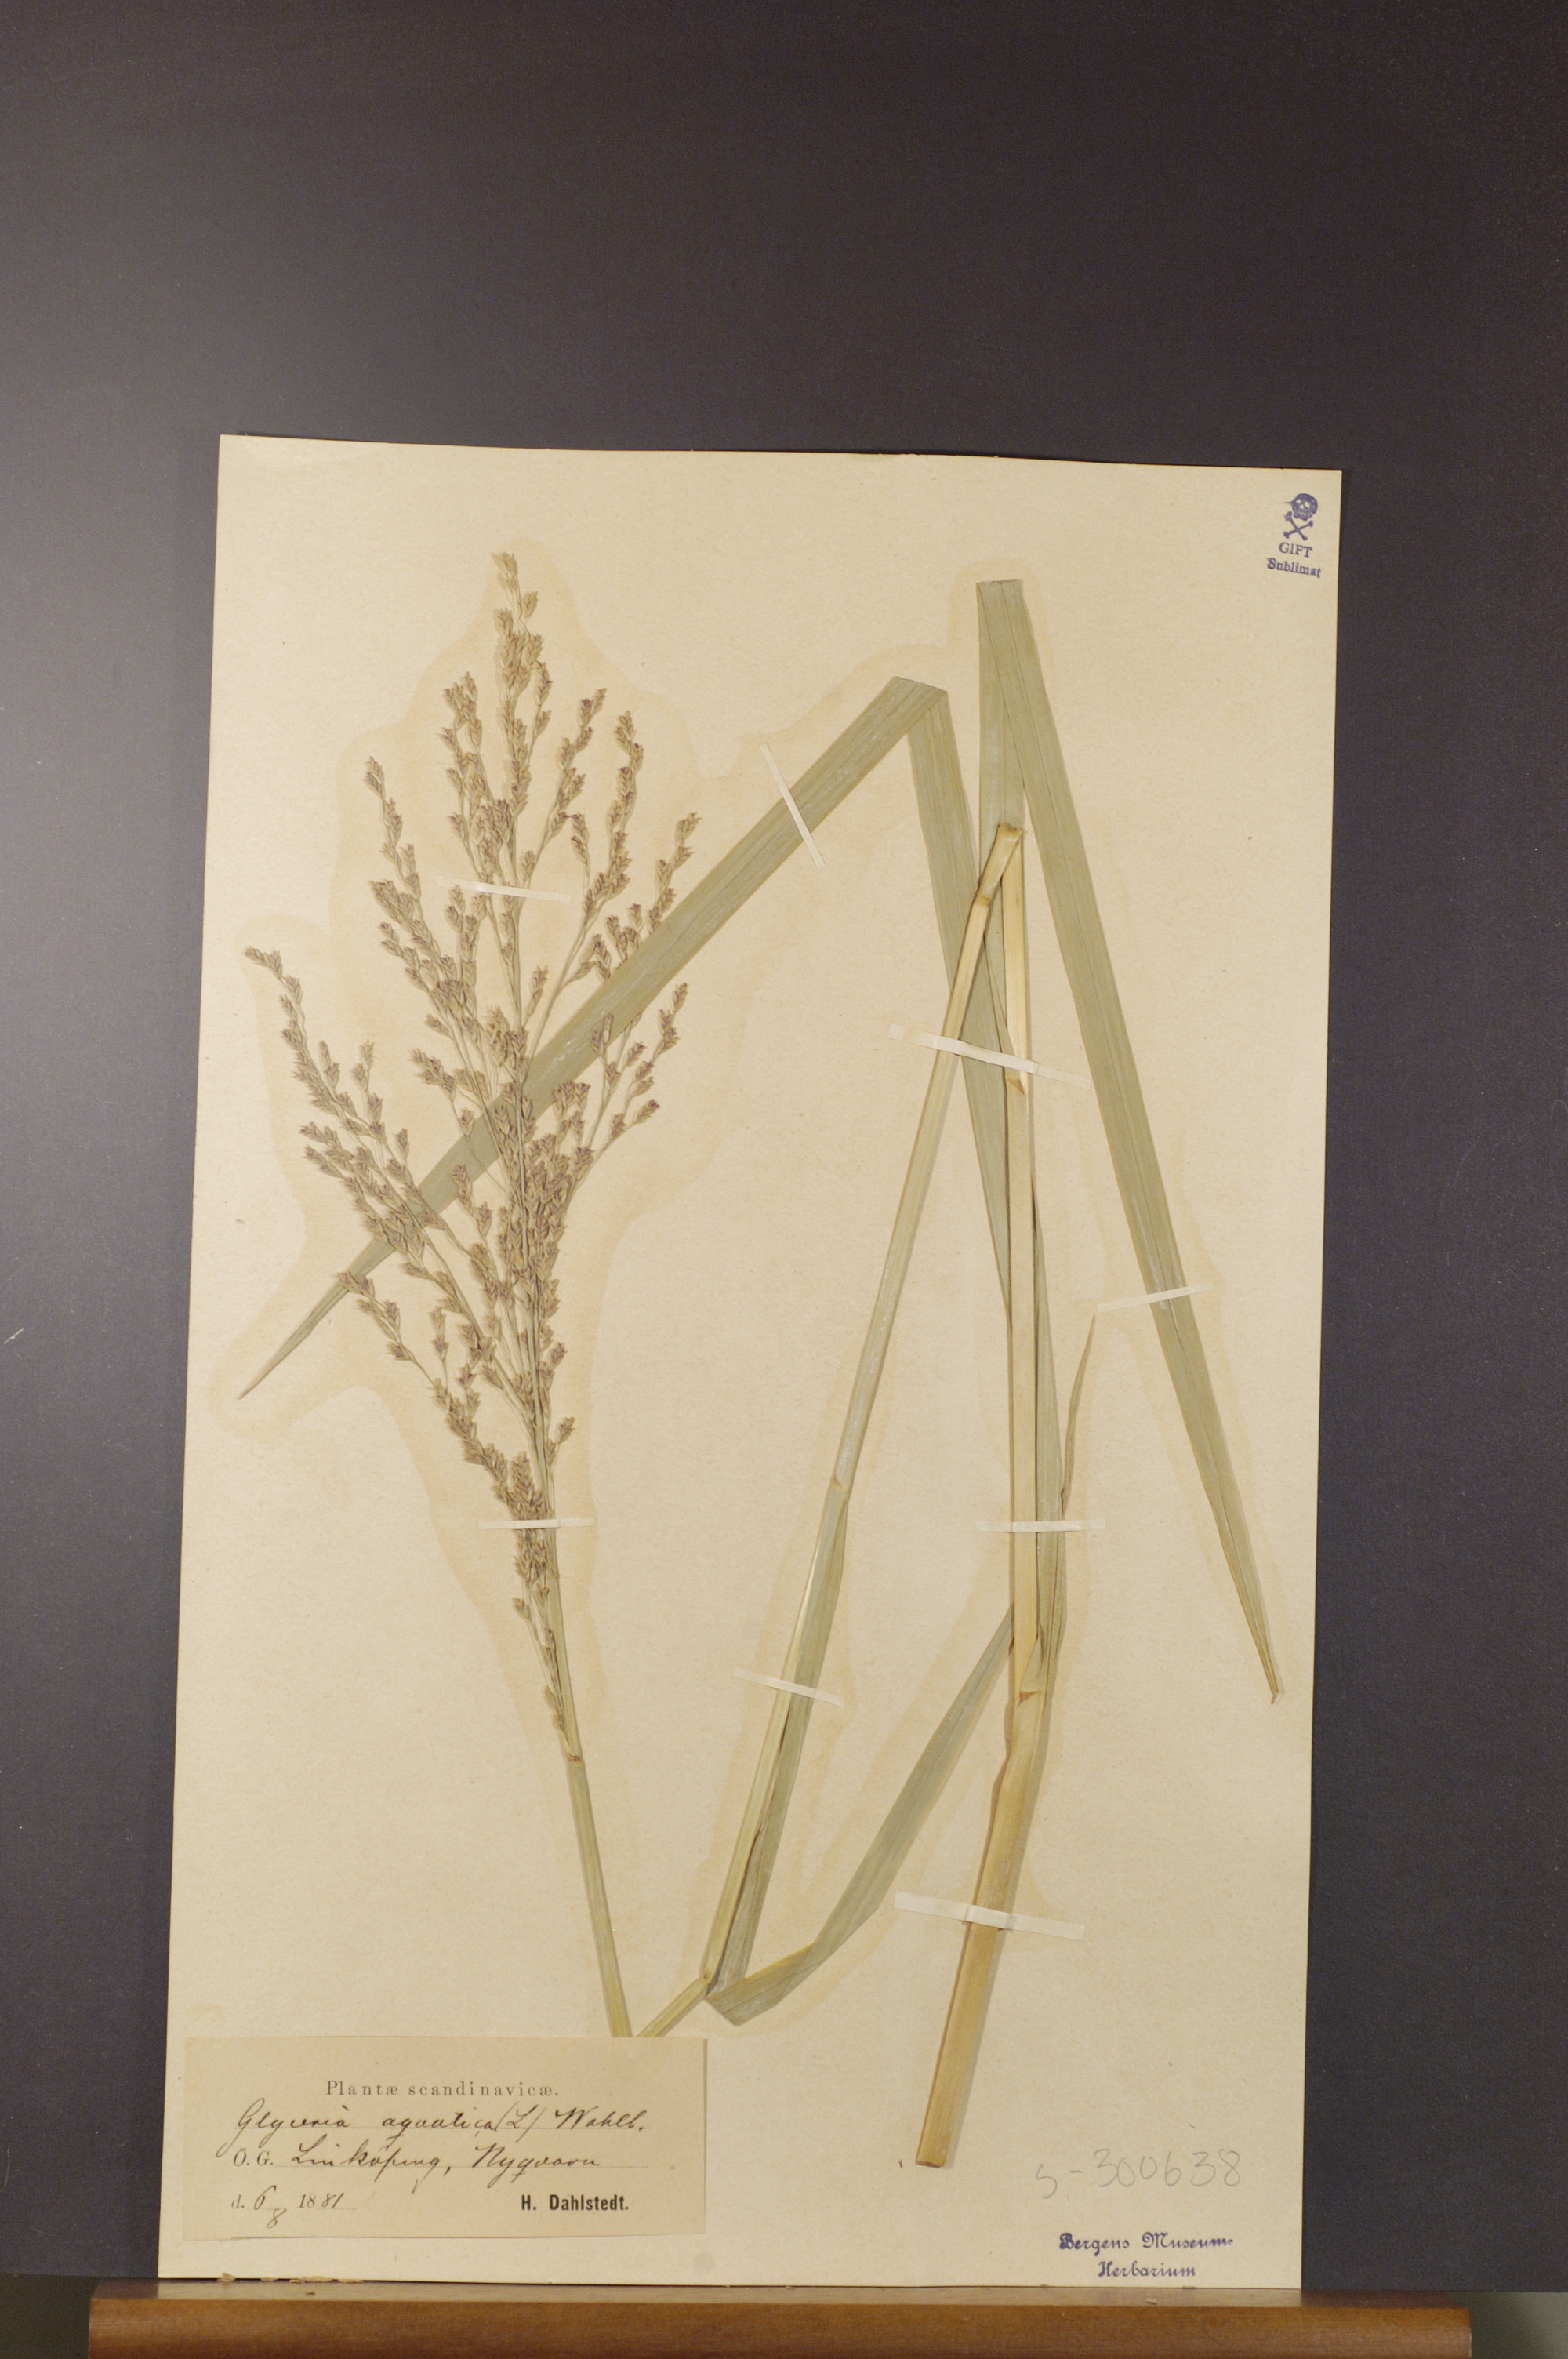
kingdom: Plantae
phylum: Tracheophyta
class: Liliopsida
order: Poales
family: Poaceae
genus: Glyceria
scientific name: Glyceria maxima
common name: Reed mannagrass
